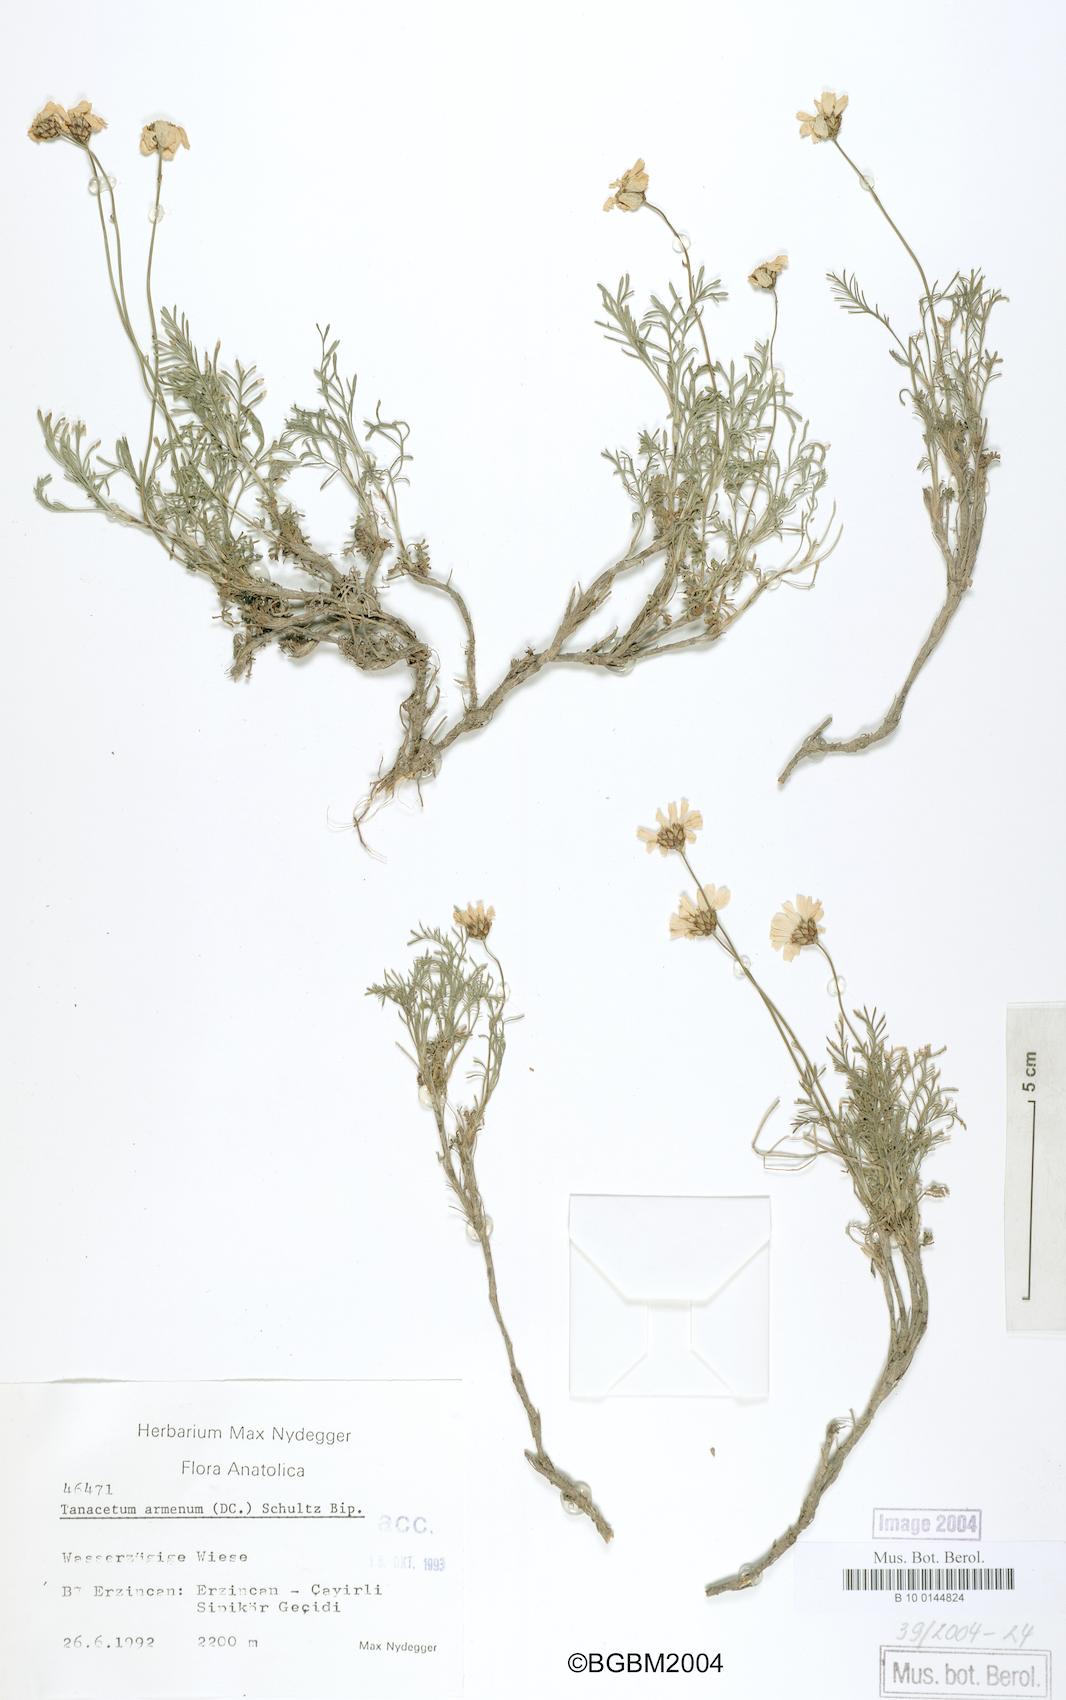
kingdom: Plantae
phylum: Tracheophyta
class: Magnoliopsida
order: Asterales
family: Asteraceae
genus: Tanacetum
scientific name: Tanacetum armenum
